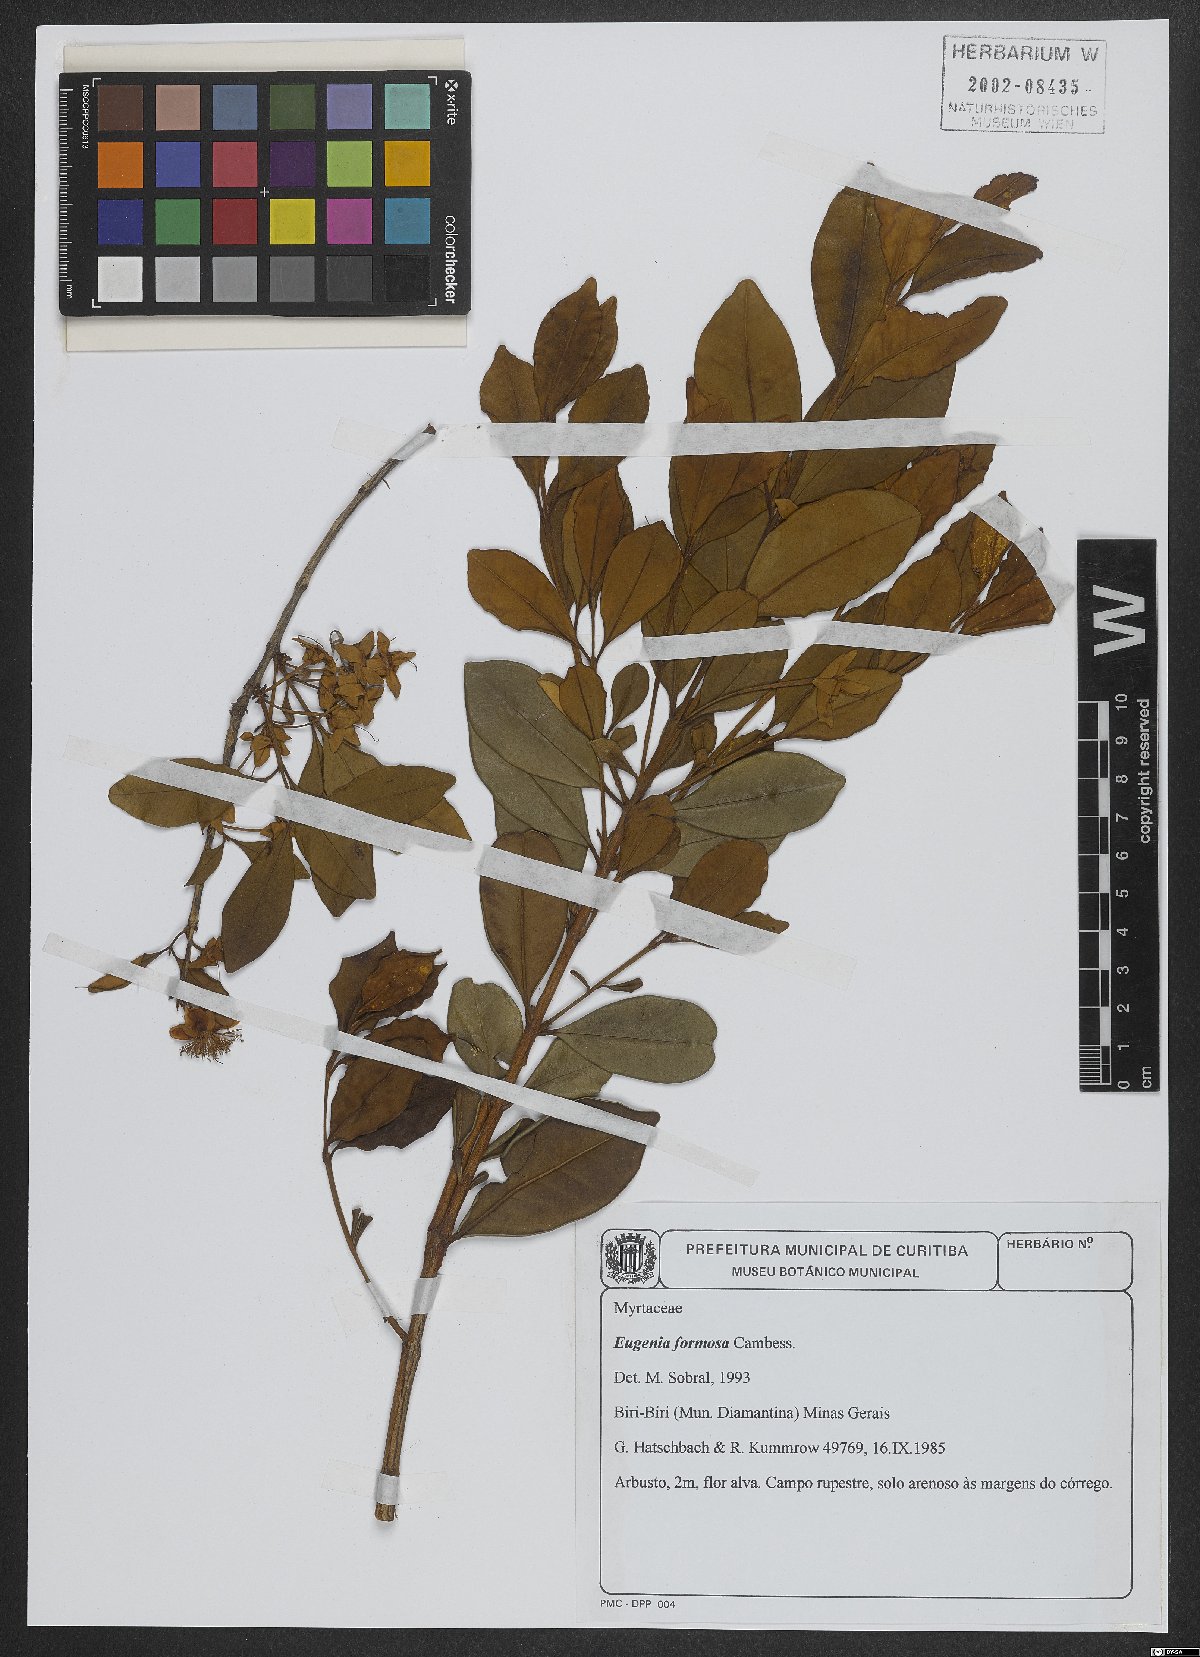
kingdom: Plantae
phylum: Tracheophyta
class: Magnoliopsida
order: Myrtales
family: Myrtaceae
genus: Eugenia
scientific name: Eugenia neoformosa
